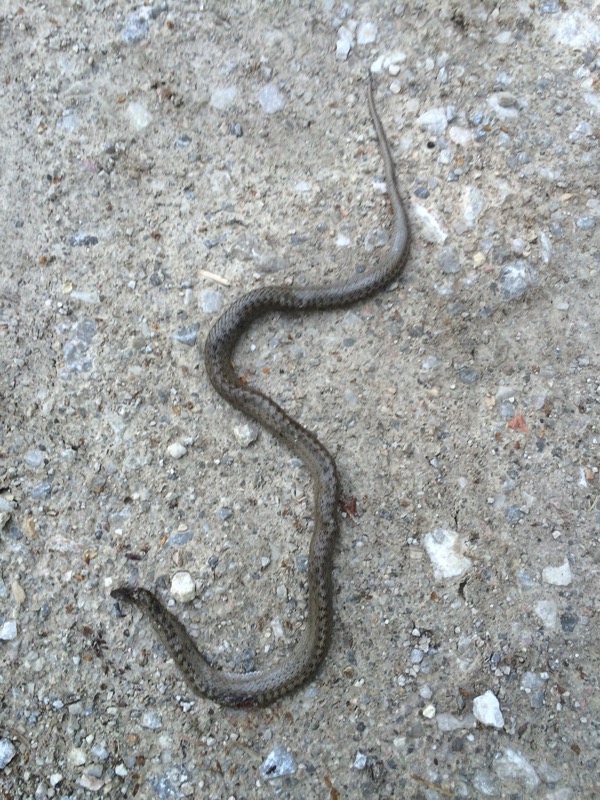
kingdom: Animalia
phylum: Chordata
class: Squamata
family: Colubridae
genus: Coronella
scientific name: Coronella austriaca
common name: Smooth snake
